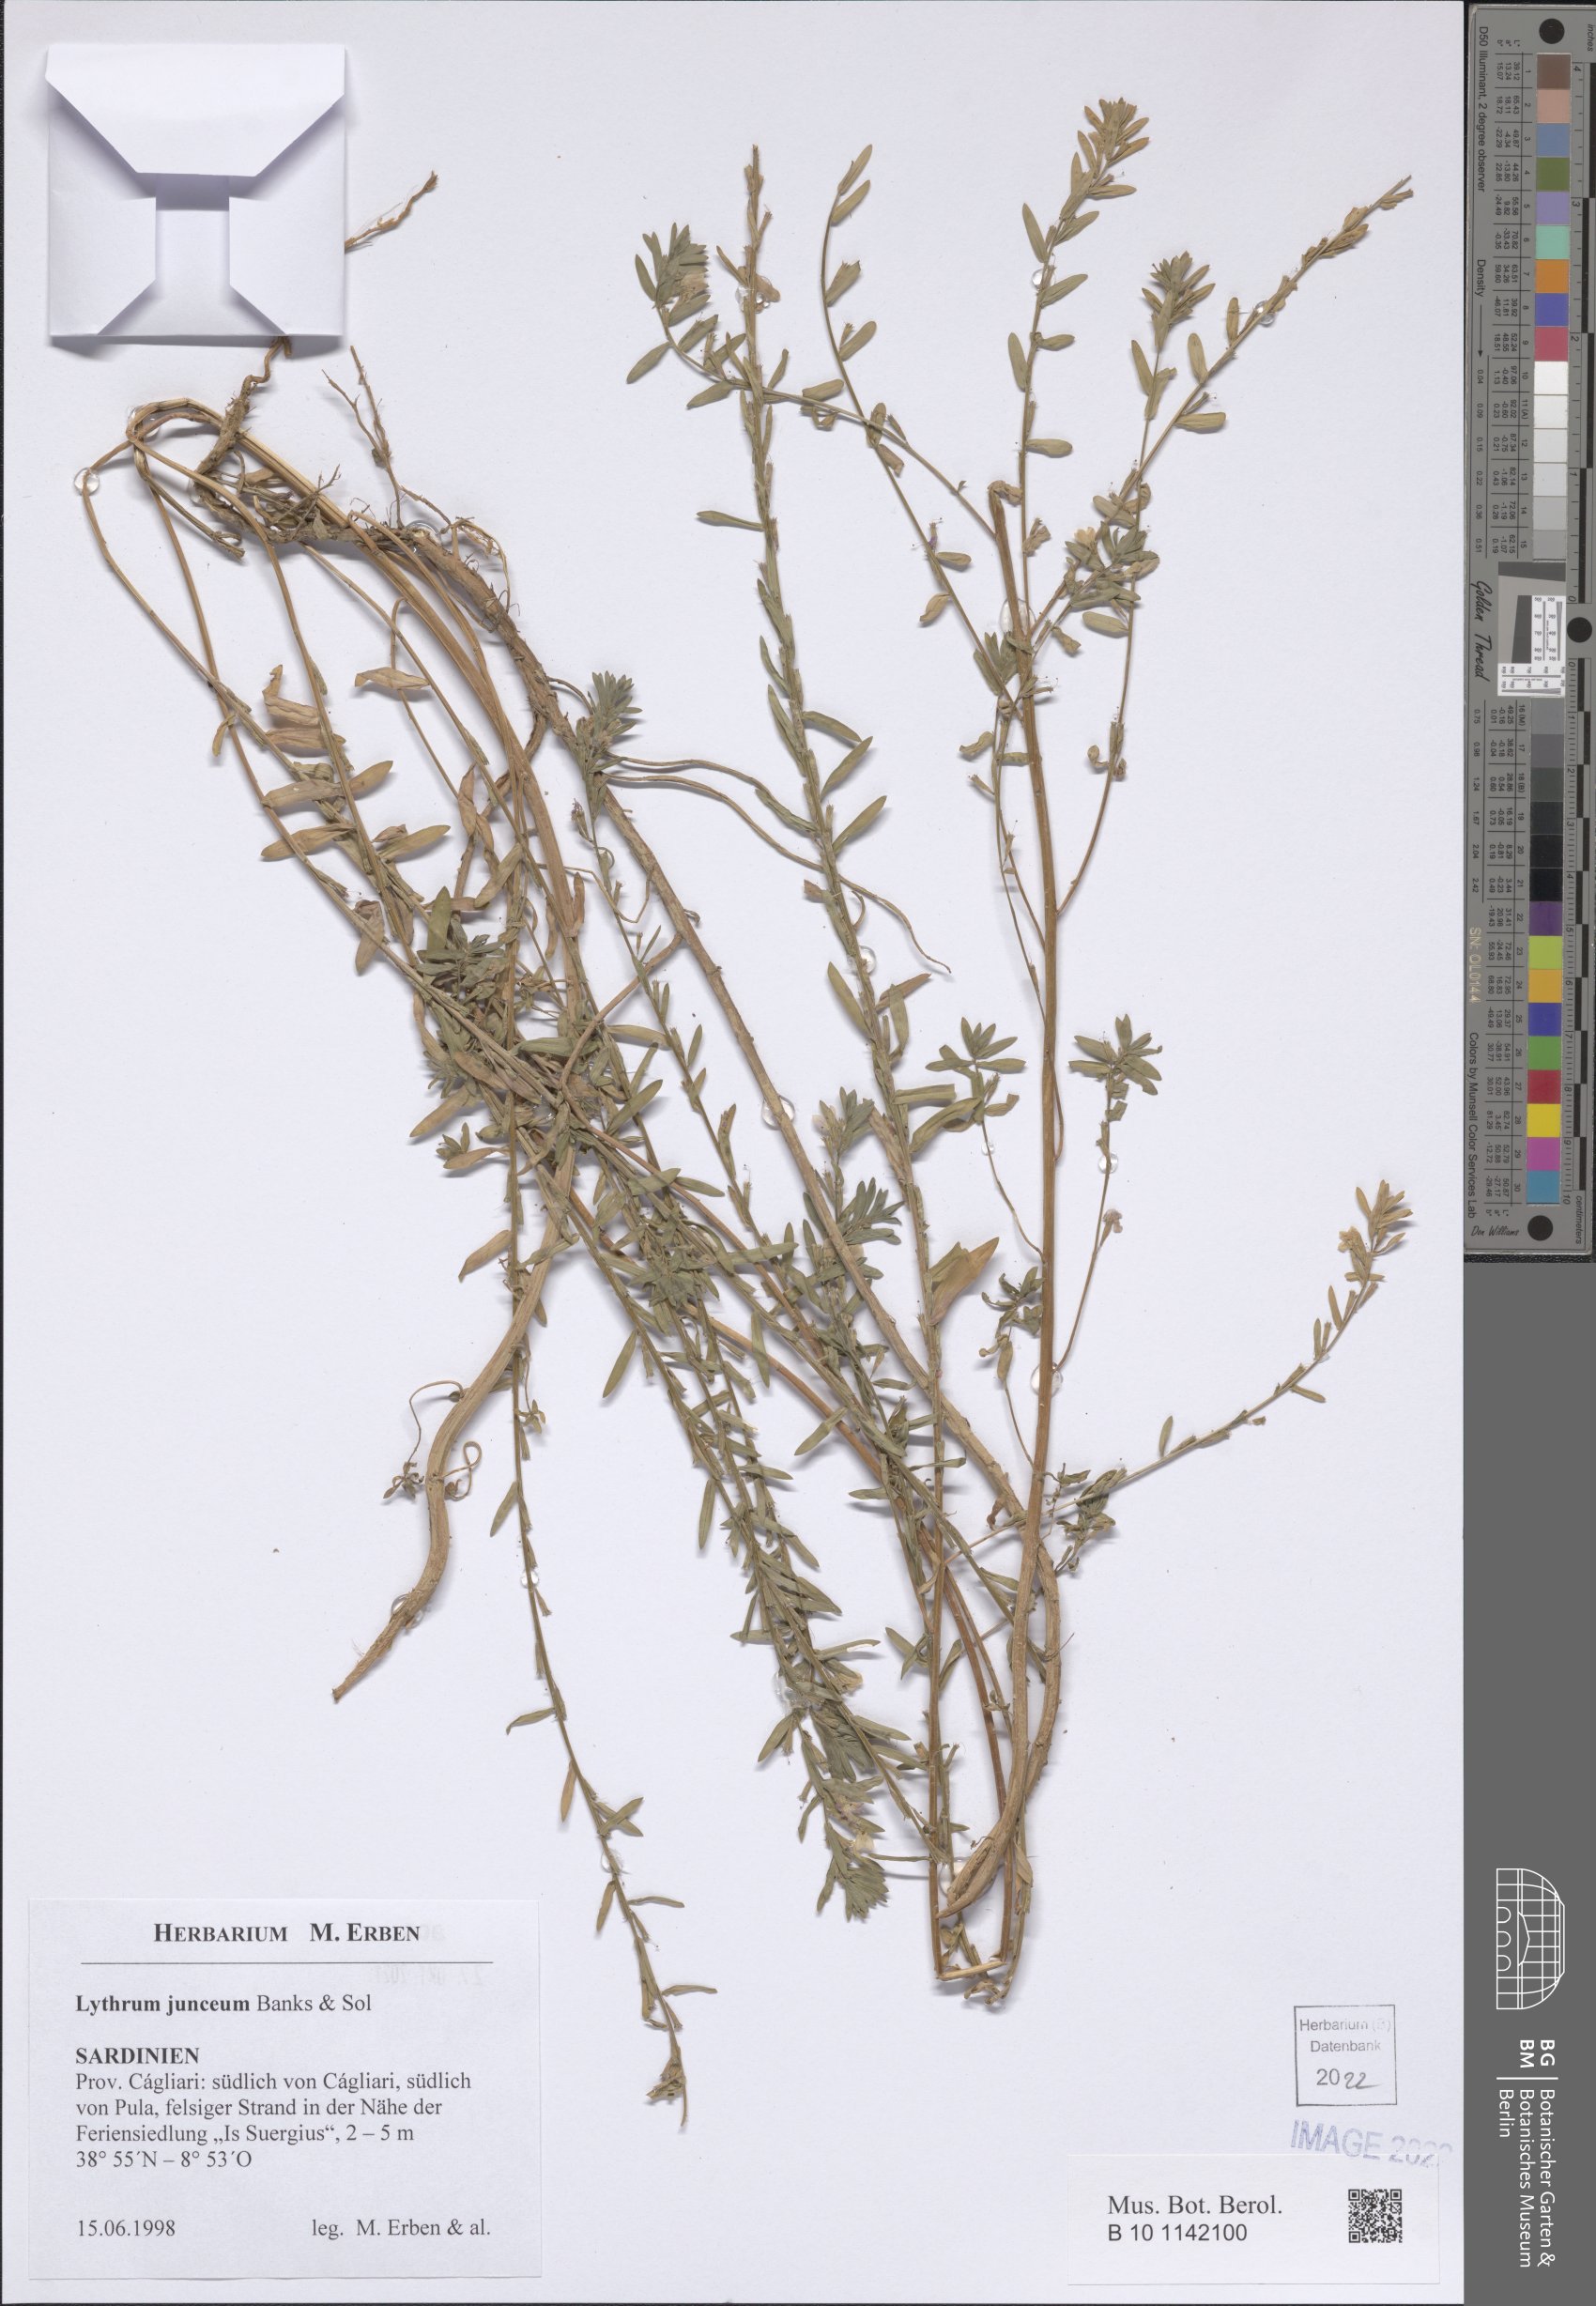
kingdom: Plantae
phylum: Tracheophyta
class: Magnoliopsida
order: Myrtales
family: Lythraceae
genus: Lythrum
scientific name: Lythrum junceum
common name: False grass-poly
